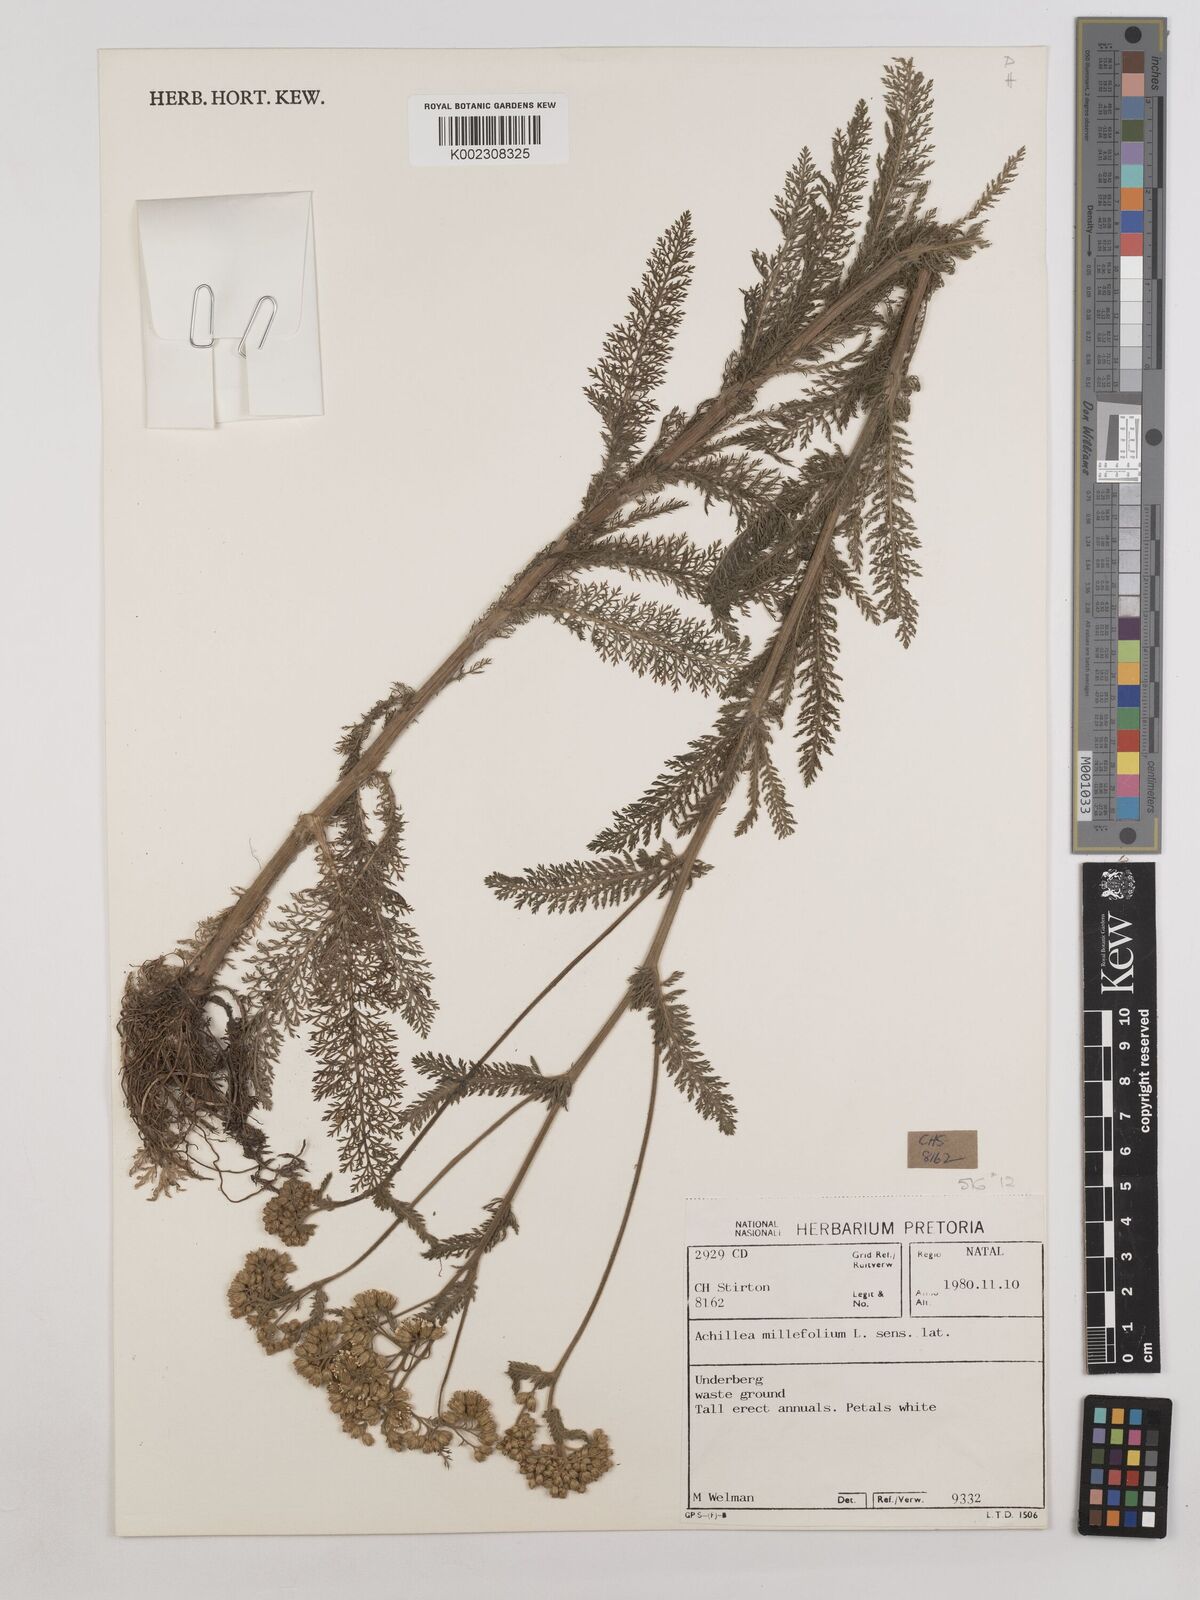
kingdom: Plantae
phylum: Tracheophyta
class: Magnoliopsida
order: Asterales
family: Asteraceae
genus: Achillea
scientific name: Achillea millefolium
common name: Yarrow
